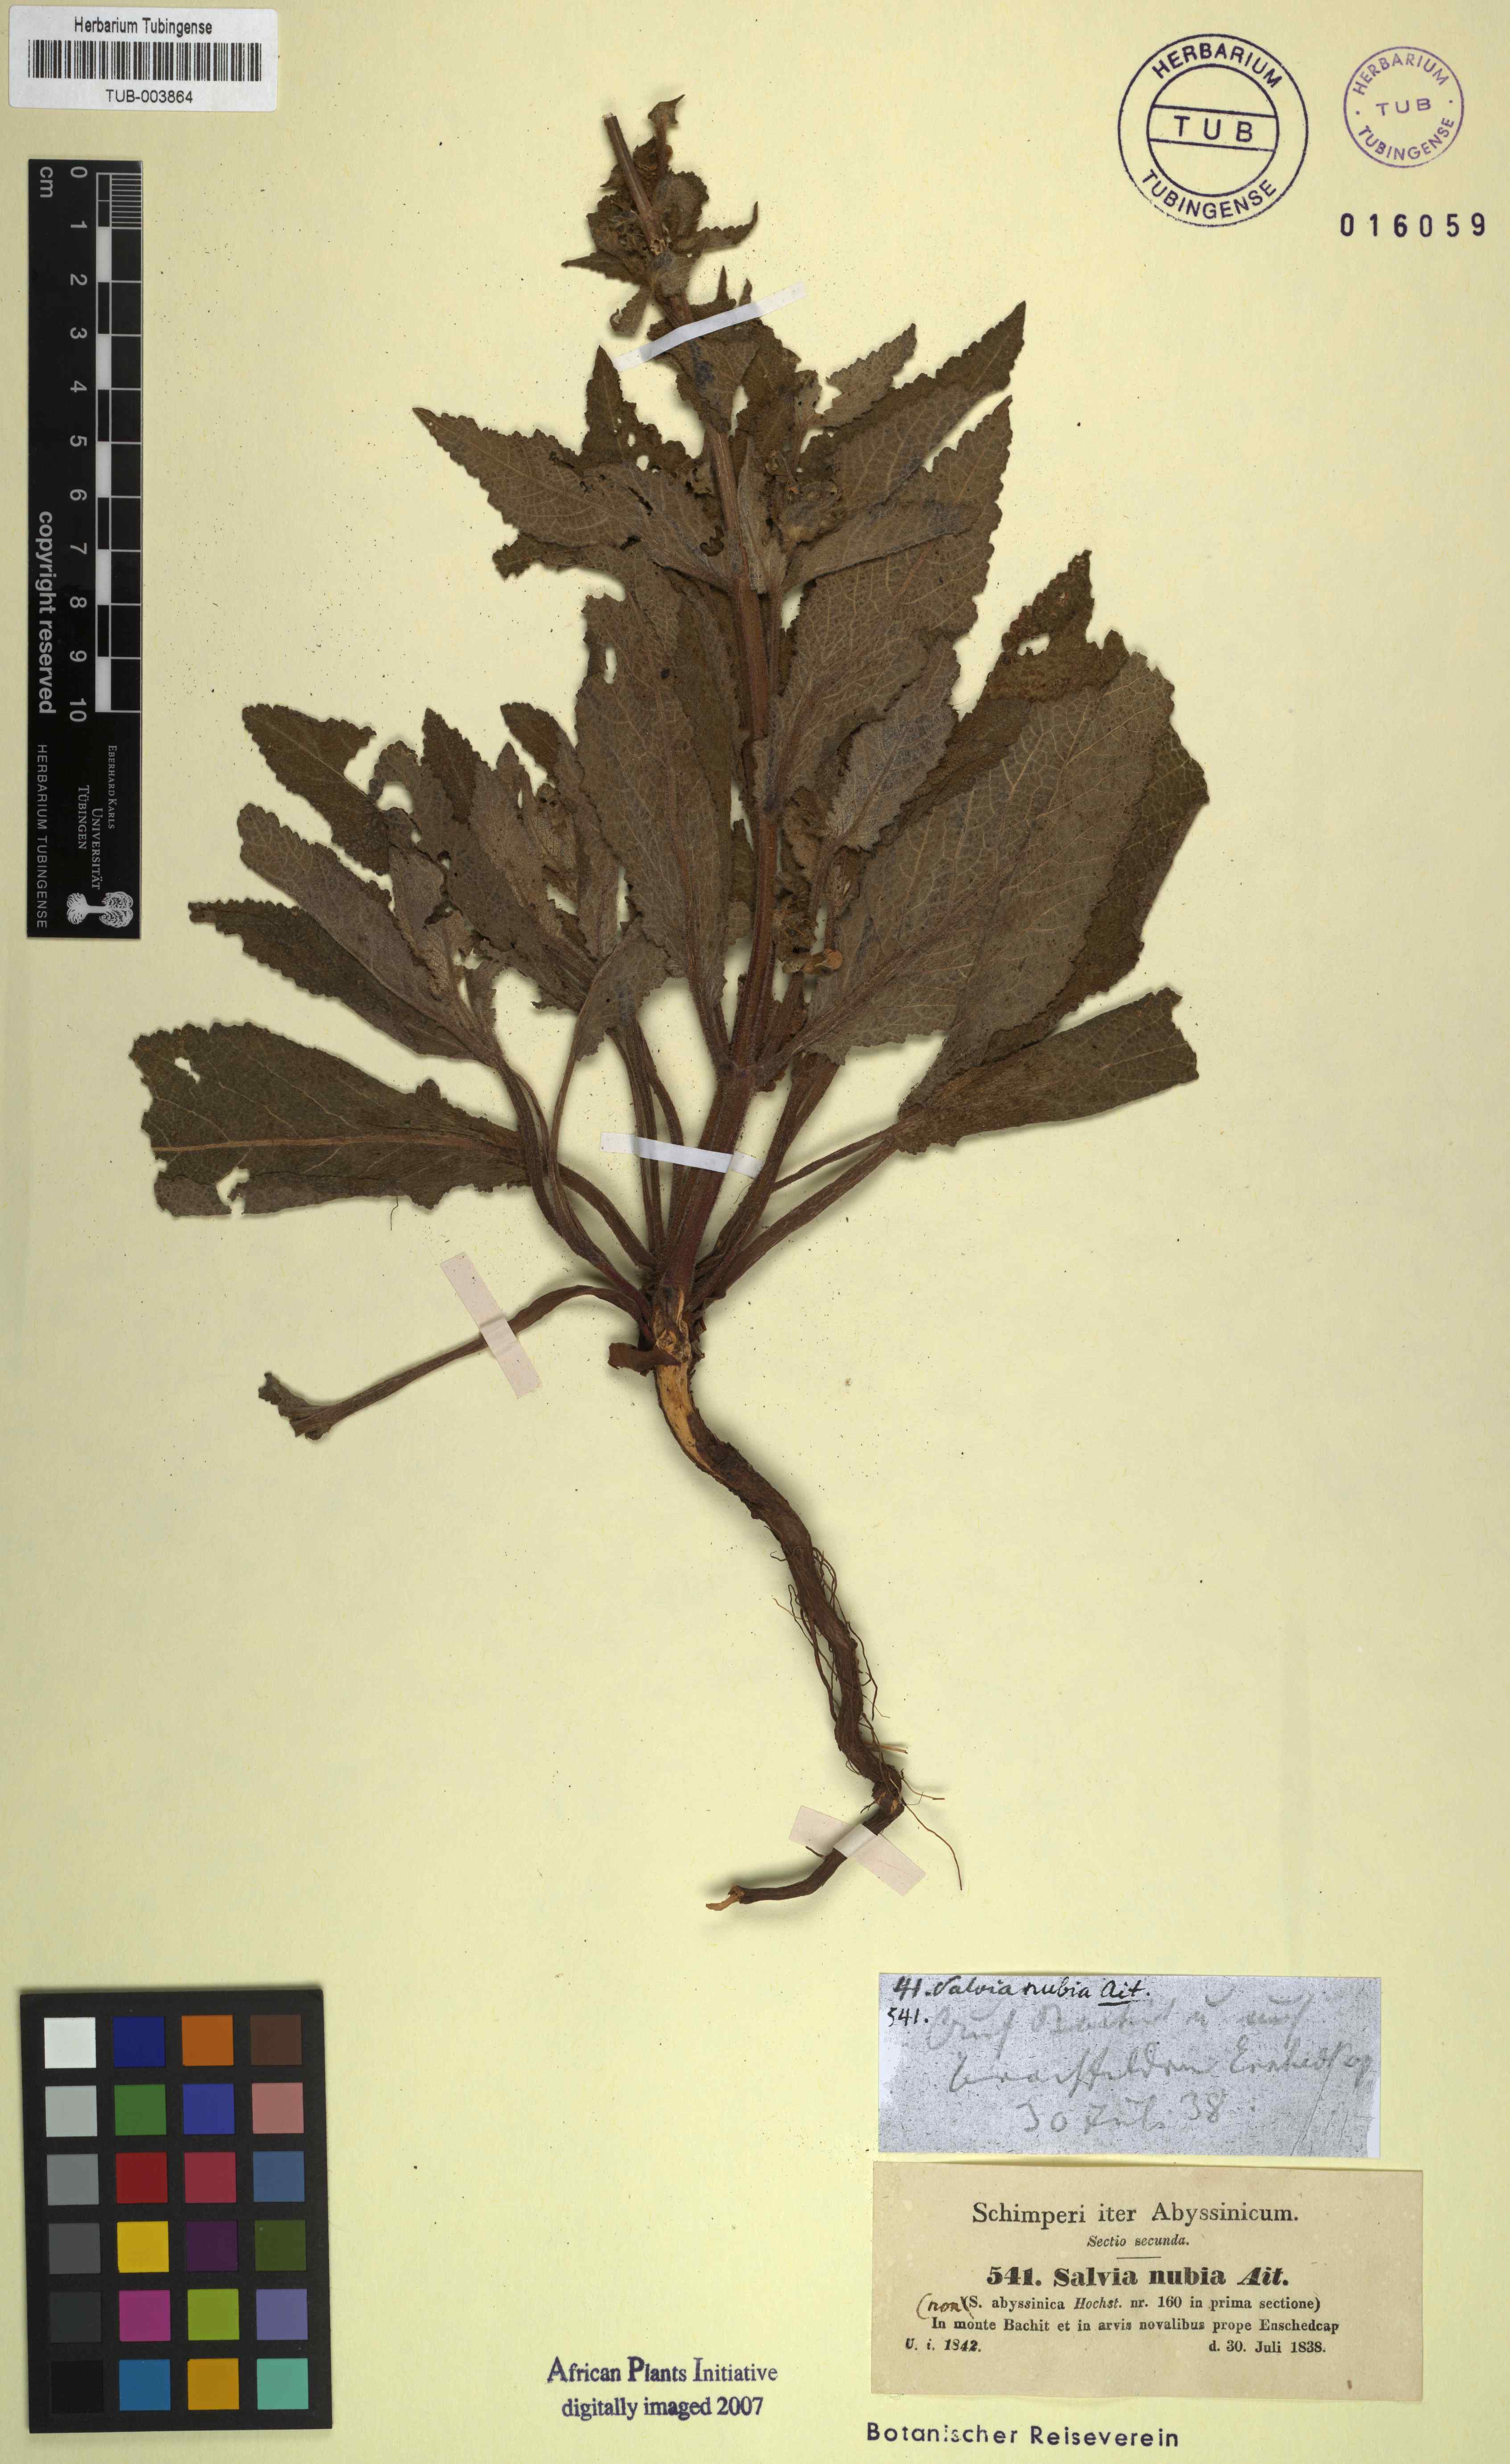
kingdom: Plantae
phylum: Tracheophyta
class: Magnoliopsida
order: Lamiales
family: Lamiaceae
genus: Salvia
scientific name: Salvia nubia
